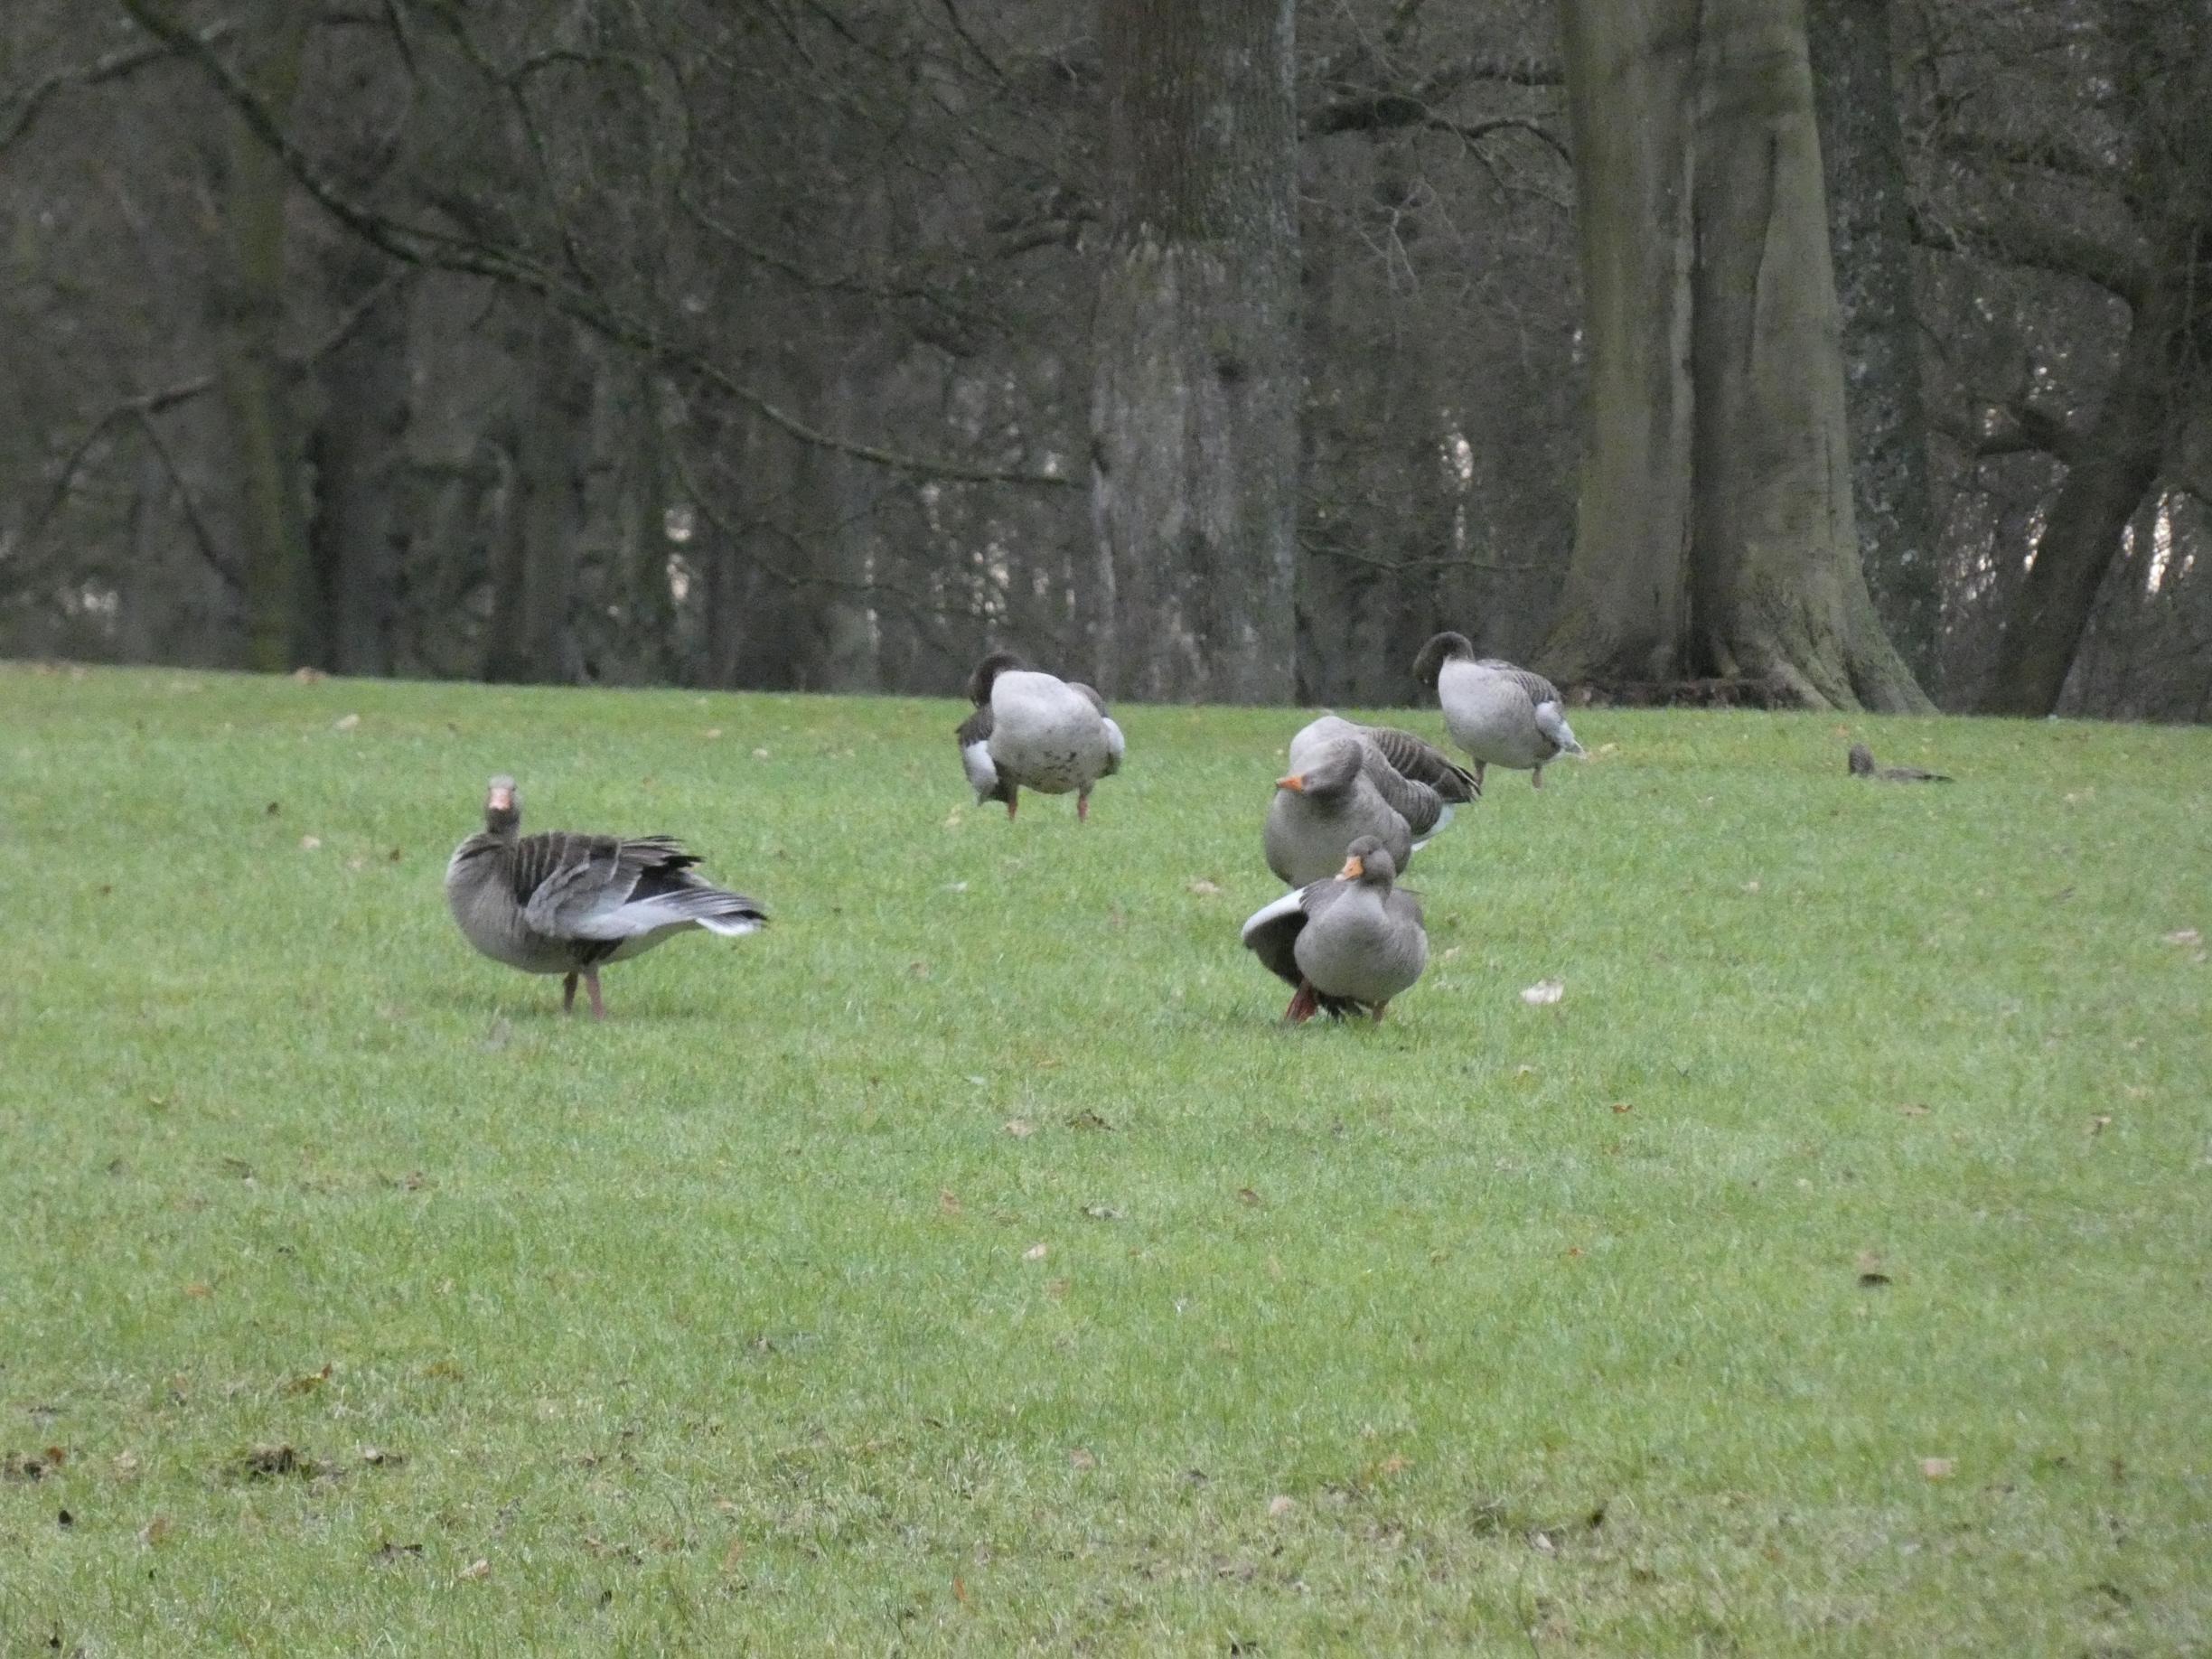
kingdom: Animalia
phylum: Chordata
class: Aves
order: Anseriformes
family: Anatidae
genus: Anser
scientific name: Anser anser
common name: Grågås
